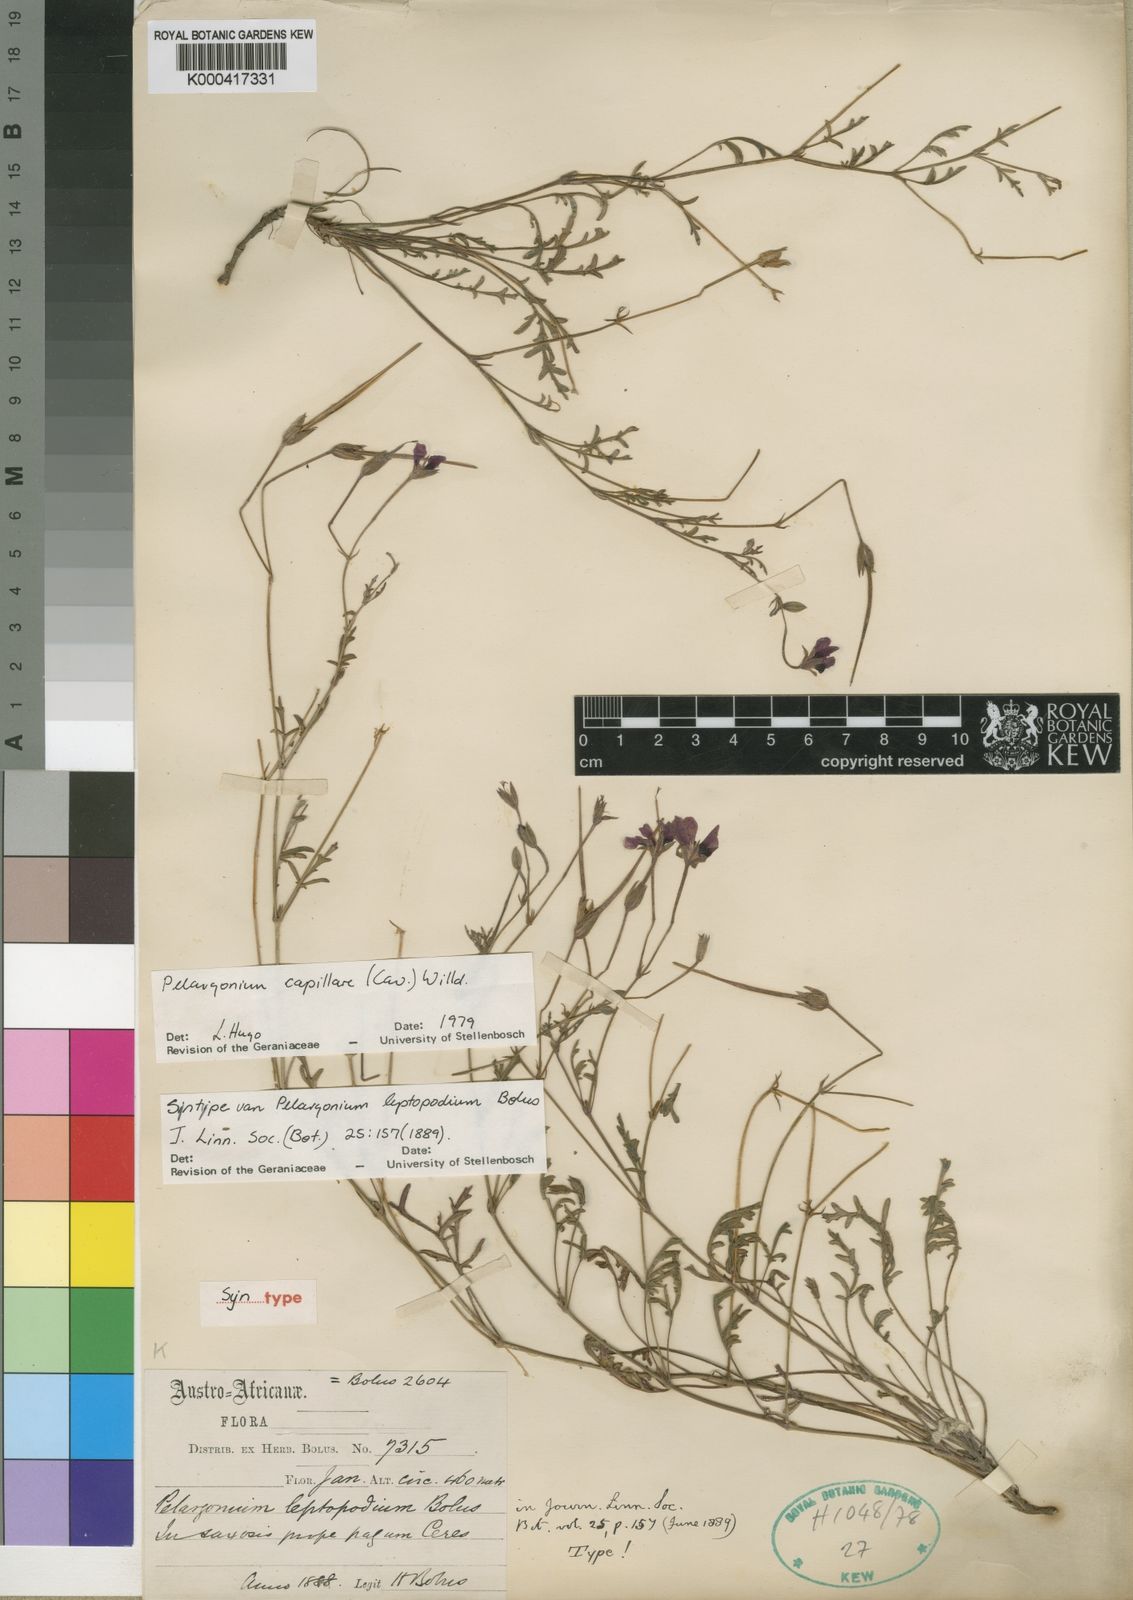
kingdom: Plantae
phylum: Tracheophyta
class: Magnoliopsida
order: Geraniales
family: Geraniaceae
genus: Pelargonium
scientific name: Pelargonium capillare
